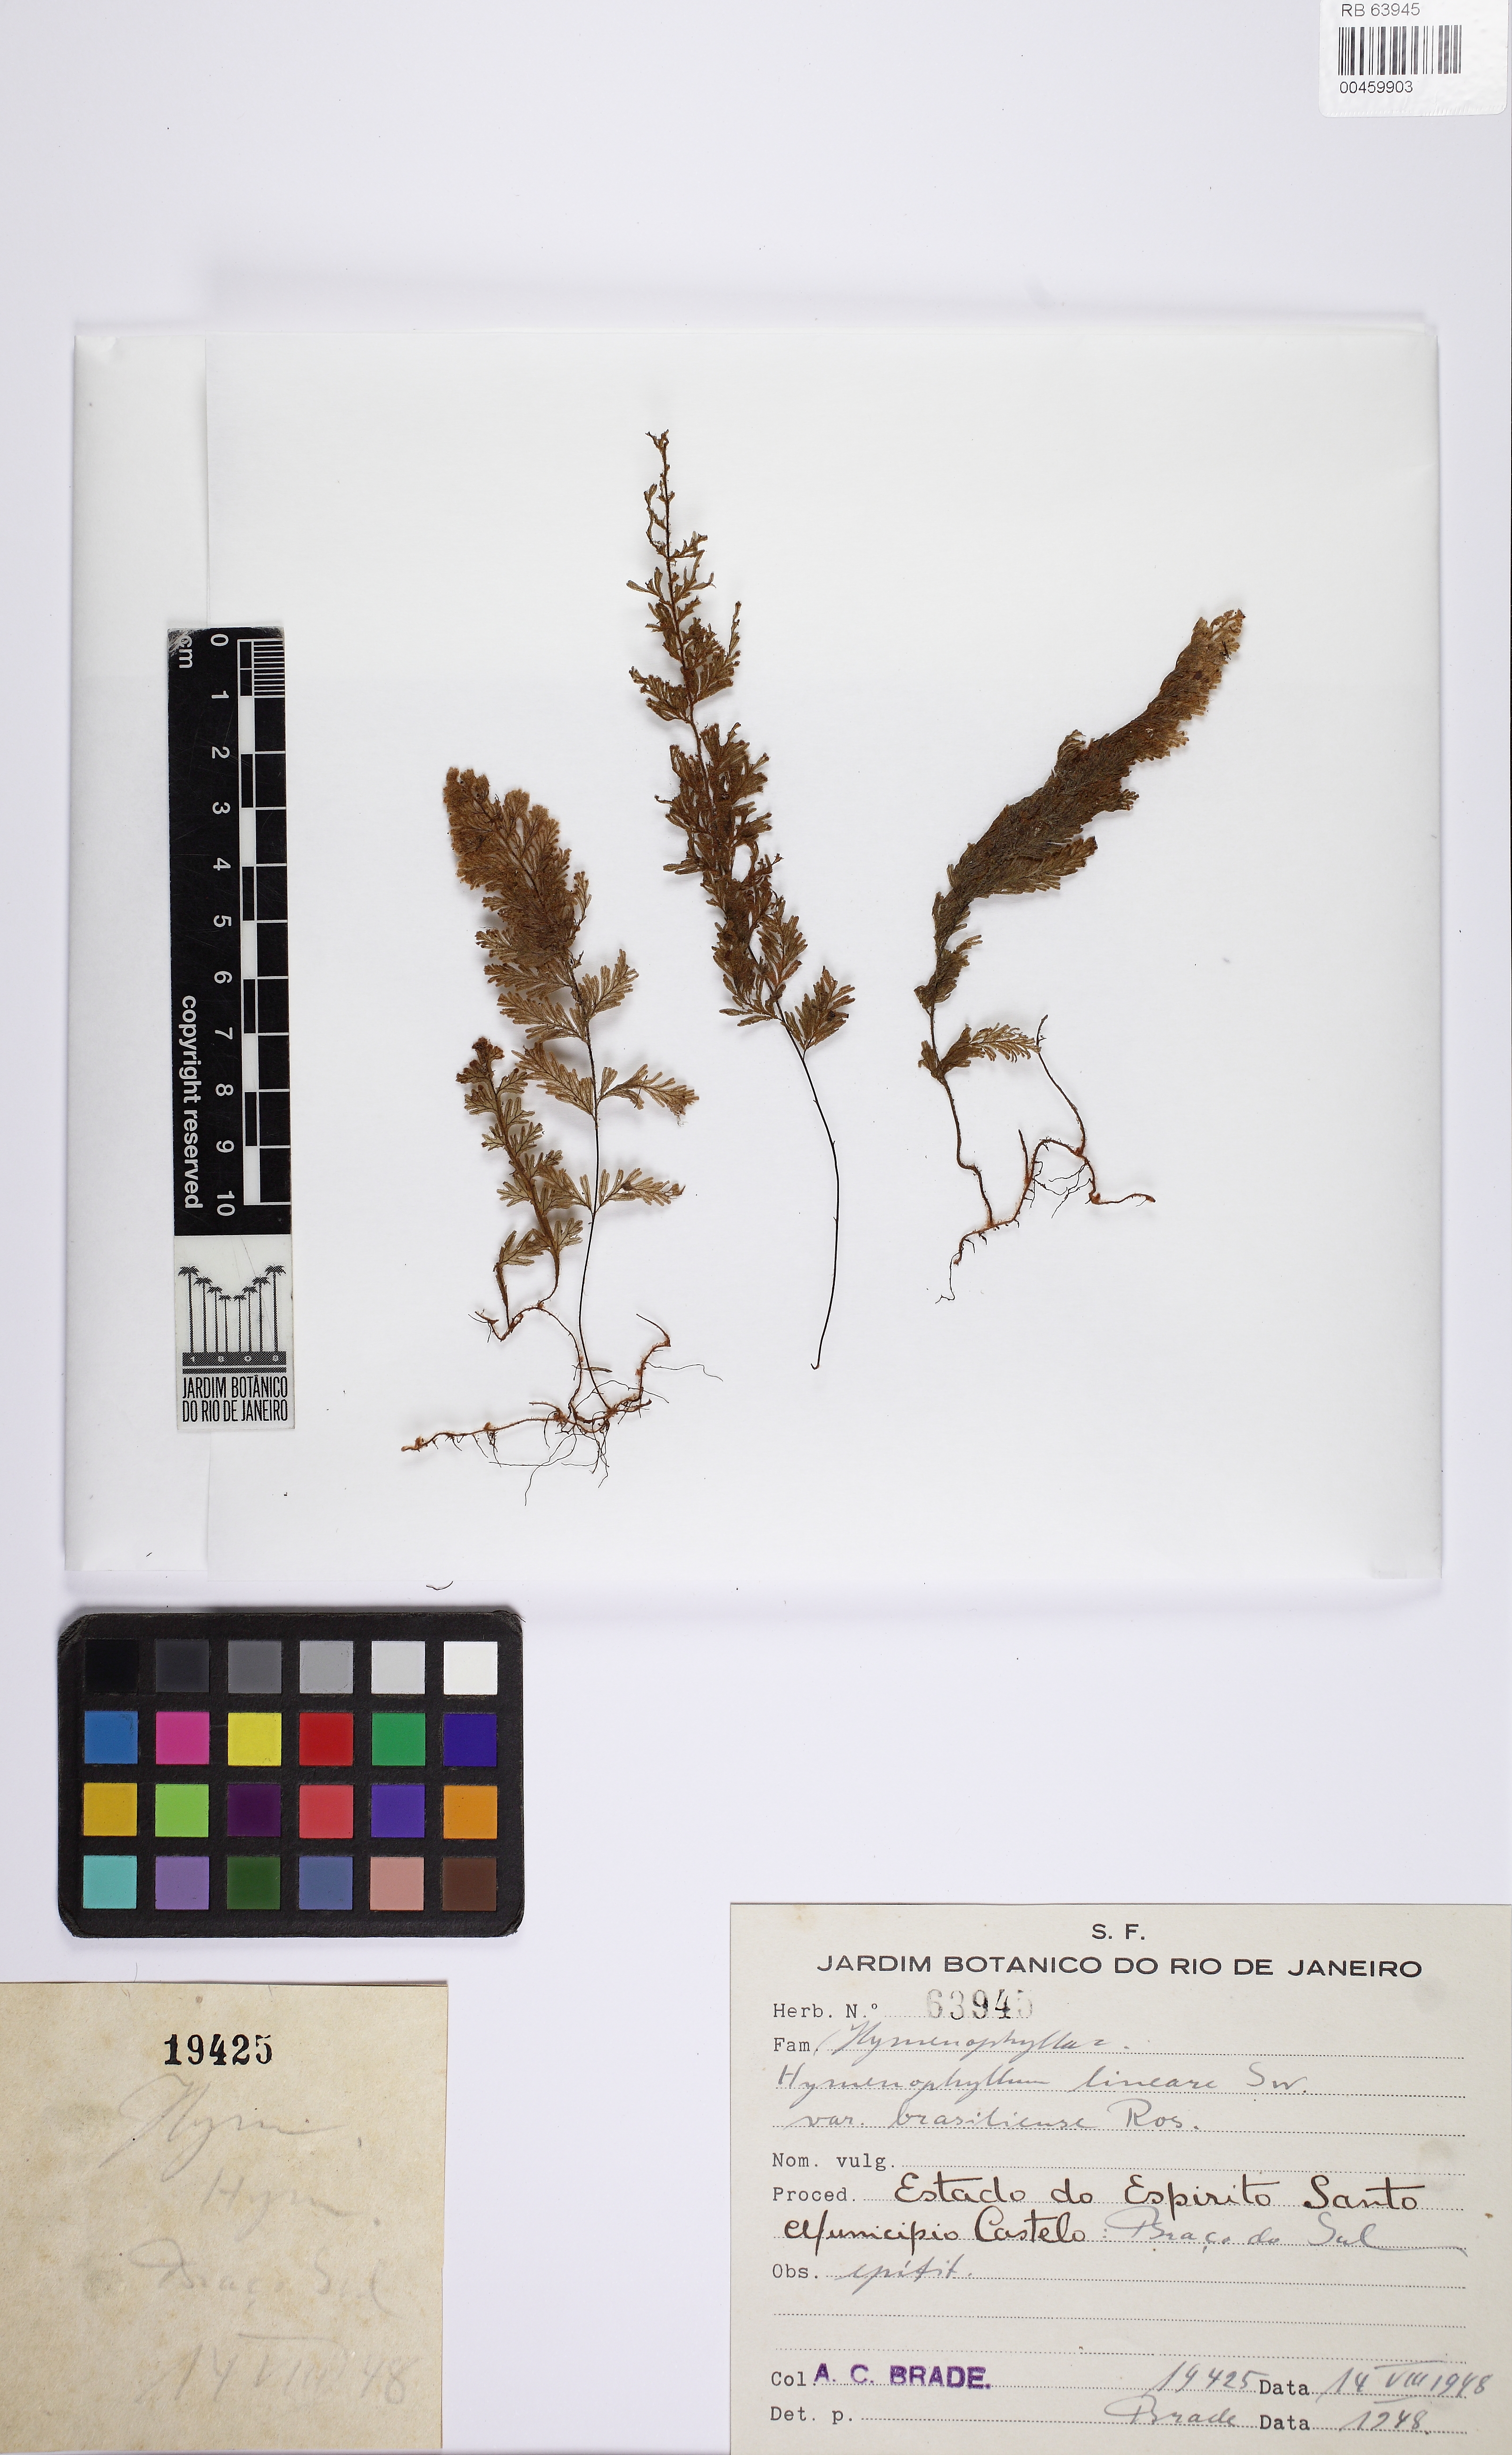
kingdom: Plantae
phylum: Tracheophyta
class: Polypodiopsida
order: Hymenophyllales
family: Hymenophyllaceae
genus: Hymenophyllum
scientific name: Hymenophyllum rufum
